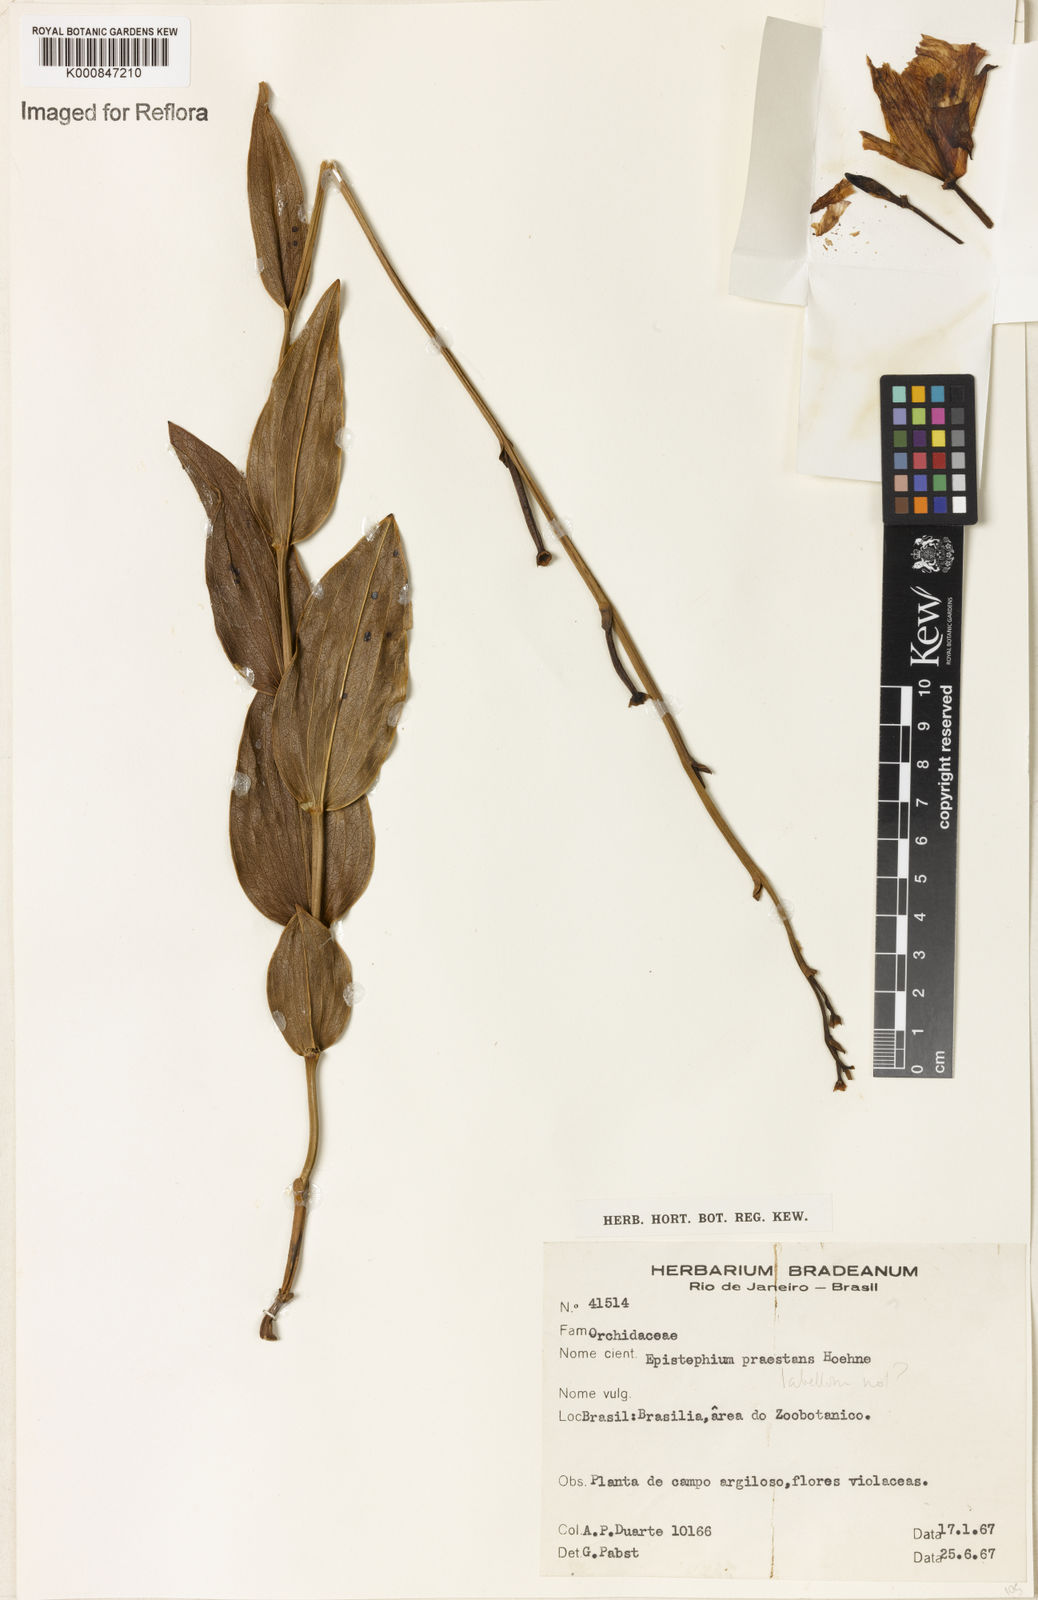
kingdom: Plantae
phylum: Tracheophyta
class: Liliopsida
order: Asparagales
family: Orchidaceae
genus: Epistephium
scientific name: Epistephium sclerophyllum
